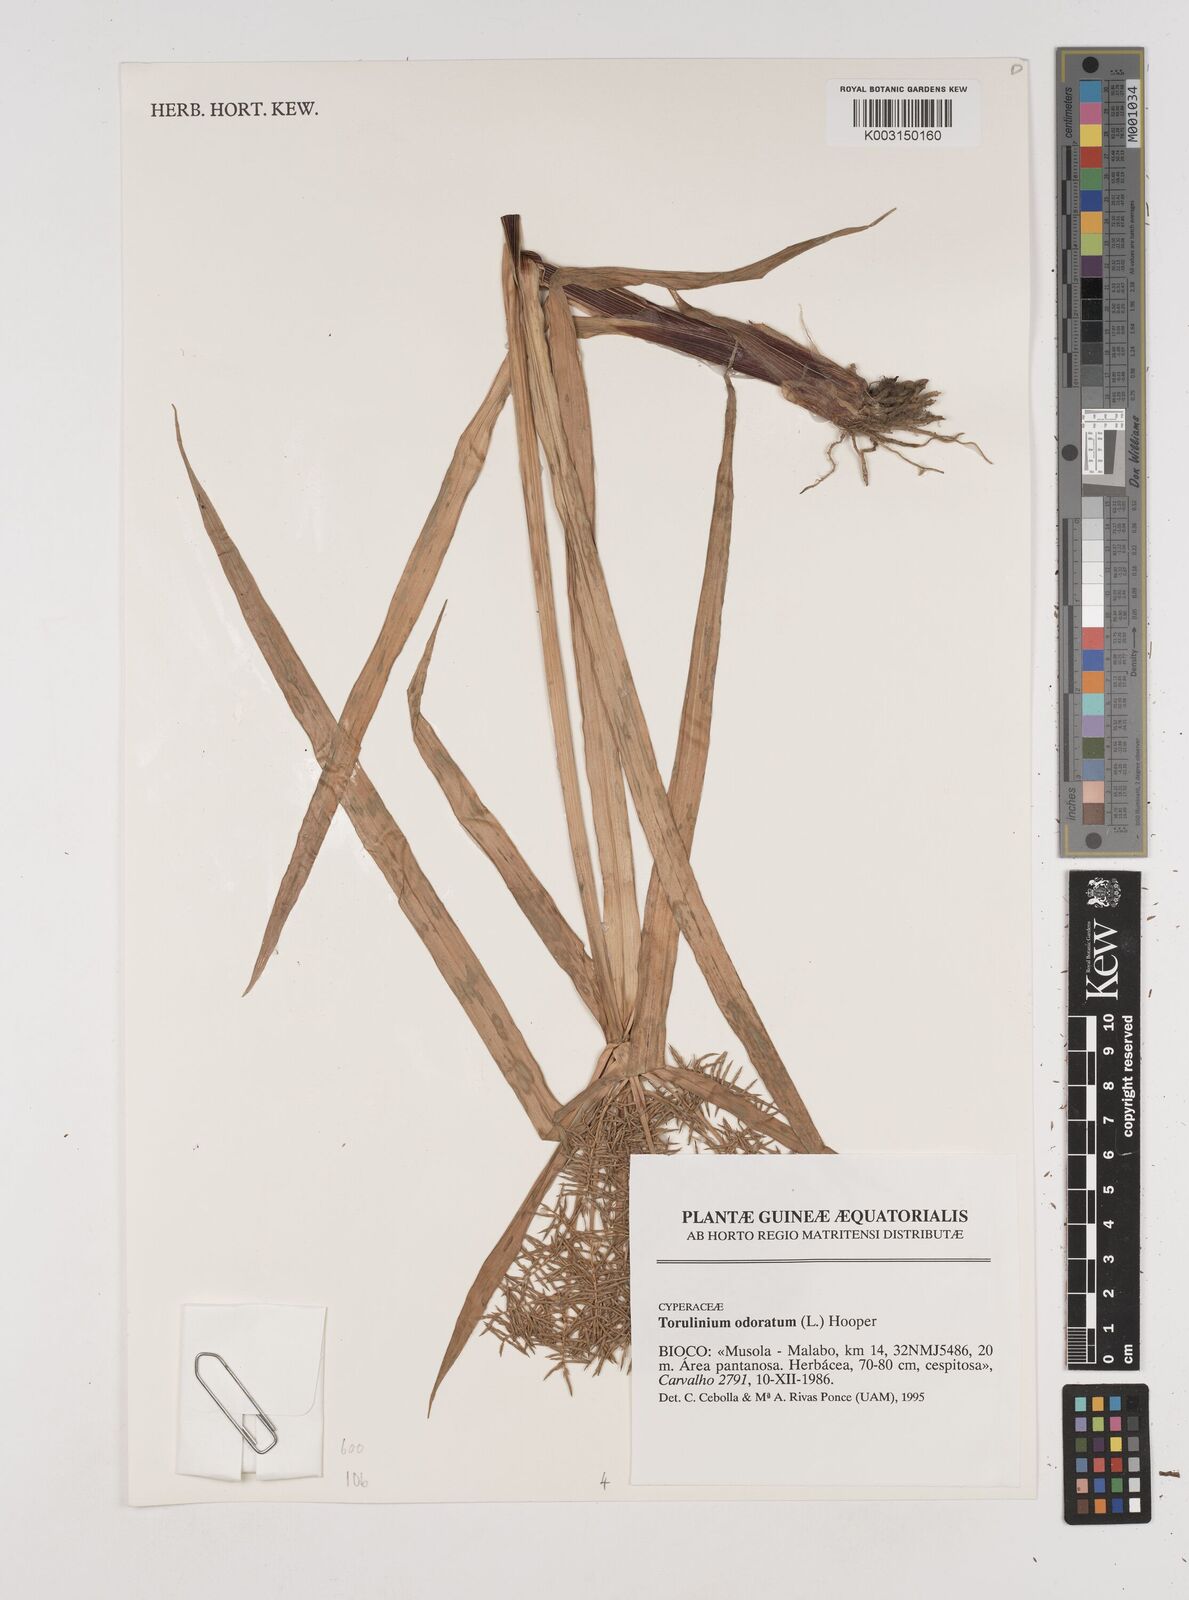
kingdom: Plantae
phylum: Tracheophyta
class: Liliopsida
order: Poales
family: Cyperaceae
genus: Cyperus
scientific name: Cyperus exaltatus
